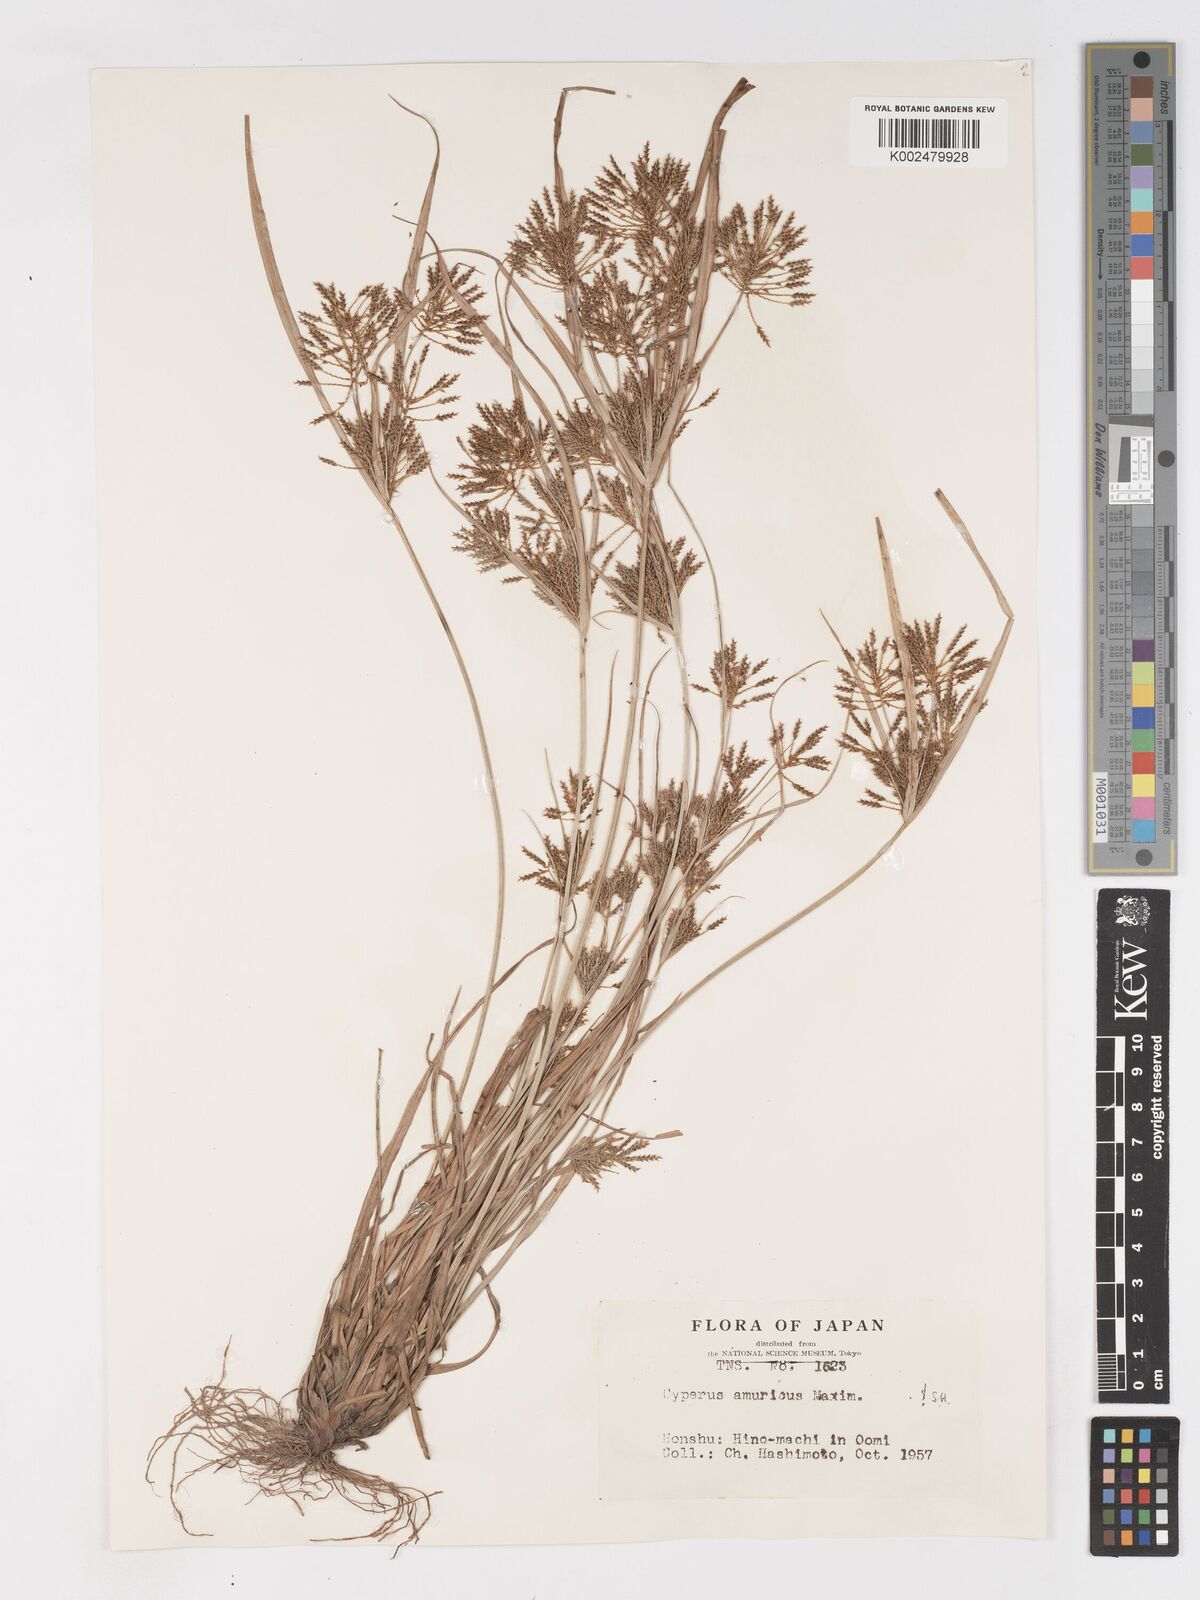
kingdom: Plantae
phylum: Tracheophyta
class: Liliopsida
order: Poales
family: Cyperaceae
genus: Cyperus
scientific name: Cyperus amuricus
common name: Asian flatsedge
